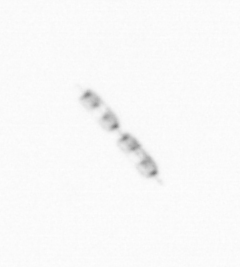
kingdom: Chromista
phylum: Ochrophyta
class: Bacillariophyceae
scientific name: Bacillariophyceae
